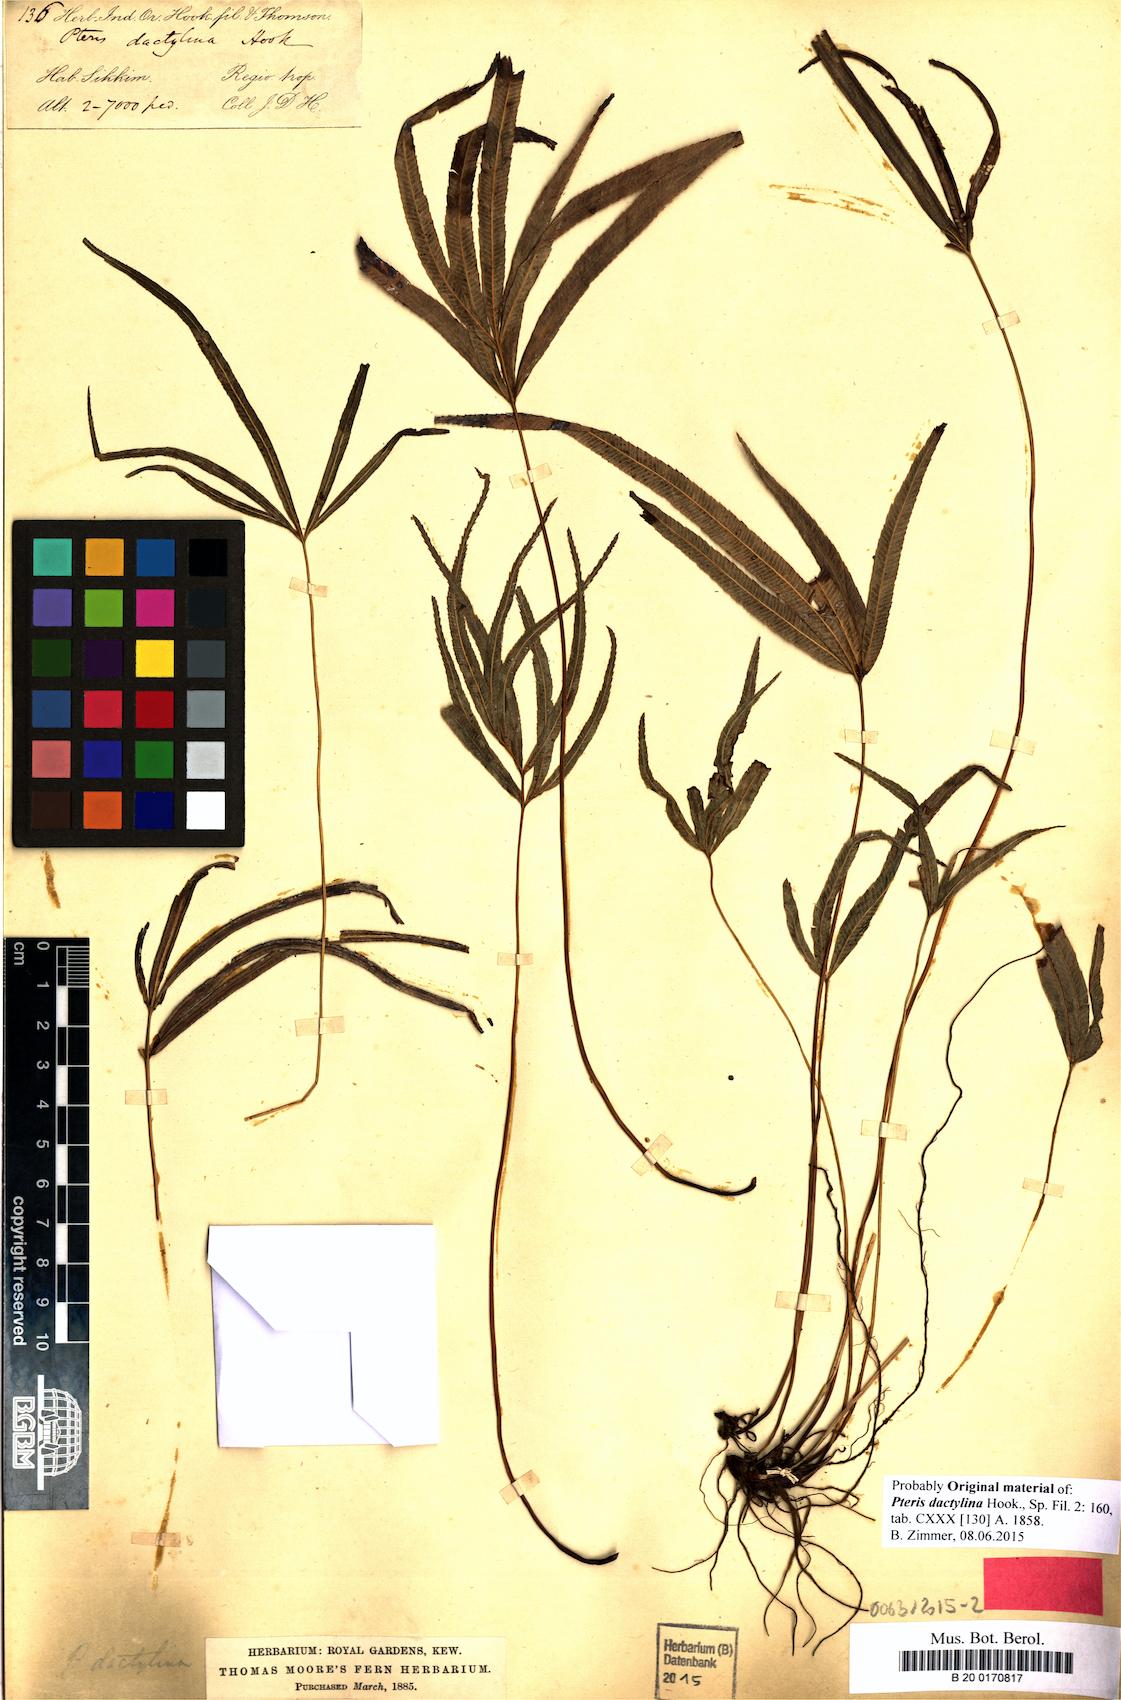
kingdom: Plantae
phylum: Tracheophyta
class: Polypodiopsida
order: Polypodiales
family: Pteridaceae
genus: Pteris
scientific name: Pteris dactylina
